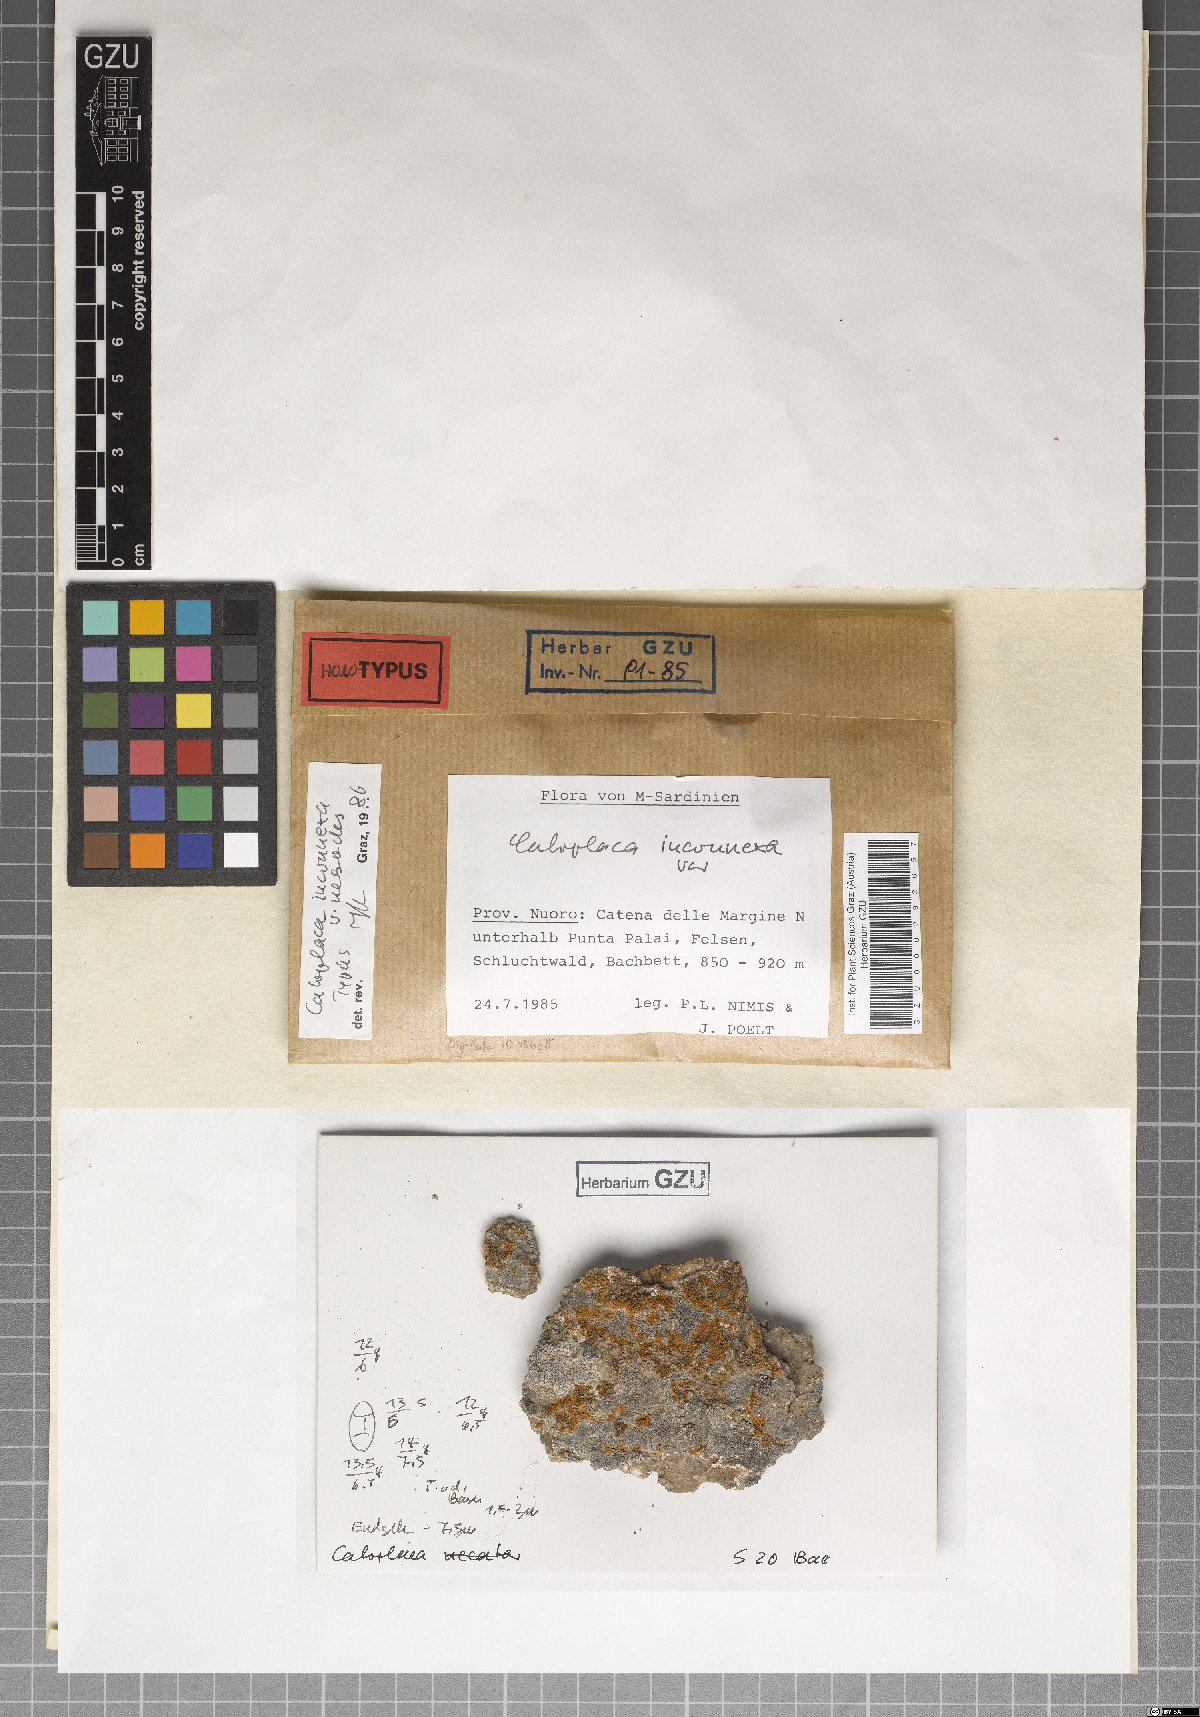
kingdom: Fungi
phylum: Ascomycota
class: Lecanoromycetes
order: Teloschistales
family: Teloschistaceae
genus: Squamulea
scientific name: Squamulea nesodes
